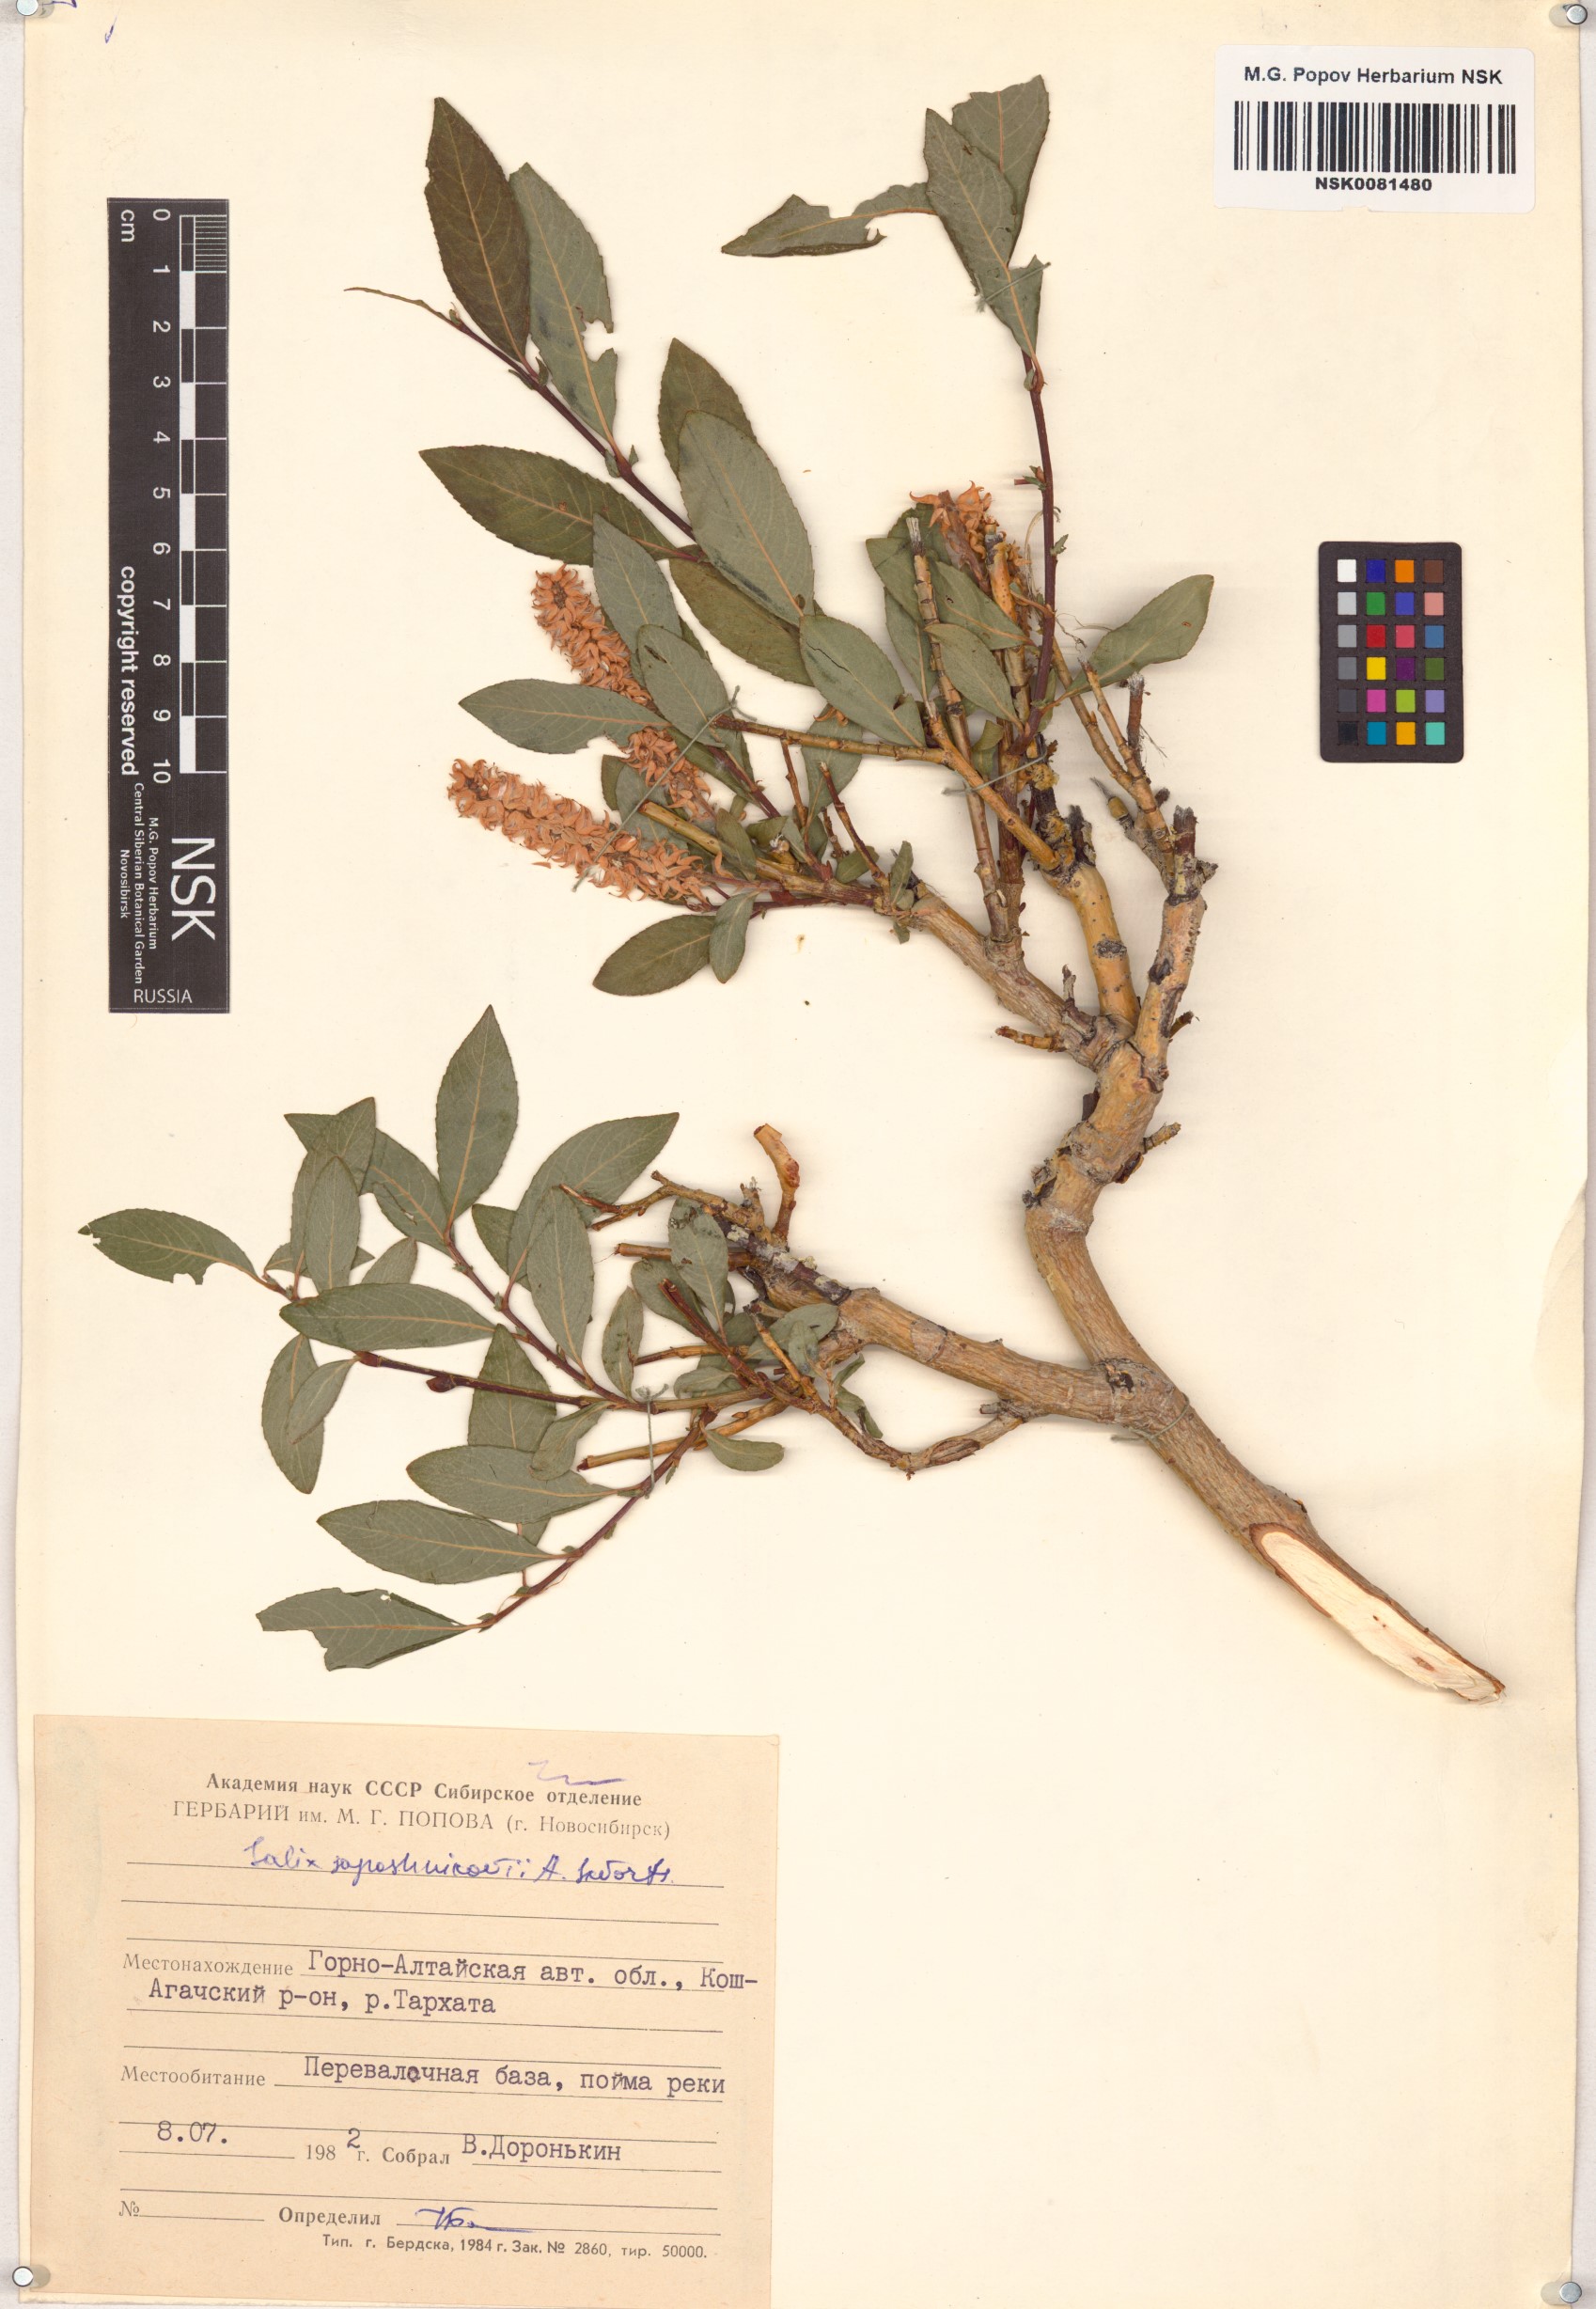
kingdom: Plantae
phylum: Tracheophyta
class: Magnoliopsida
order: Malpighiales
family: Salicaceae
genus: Salix
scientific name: Salix saposhnikovii
